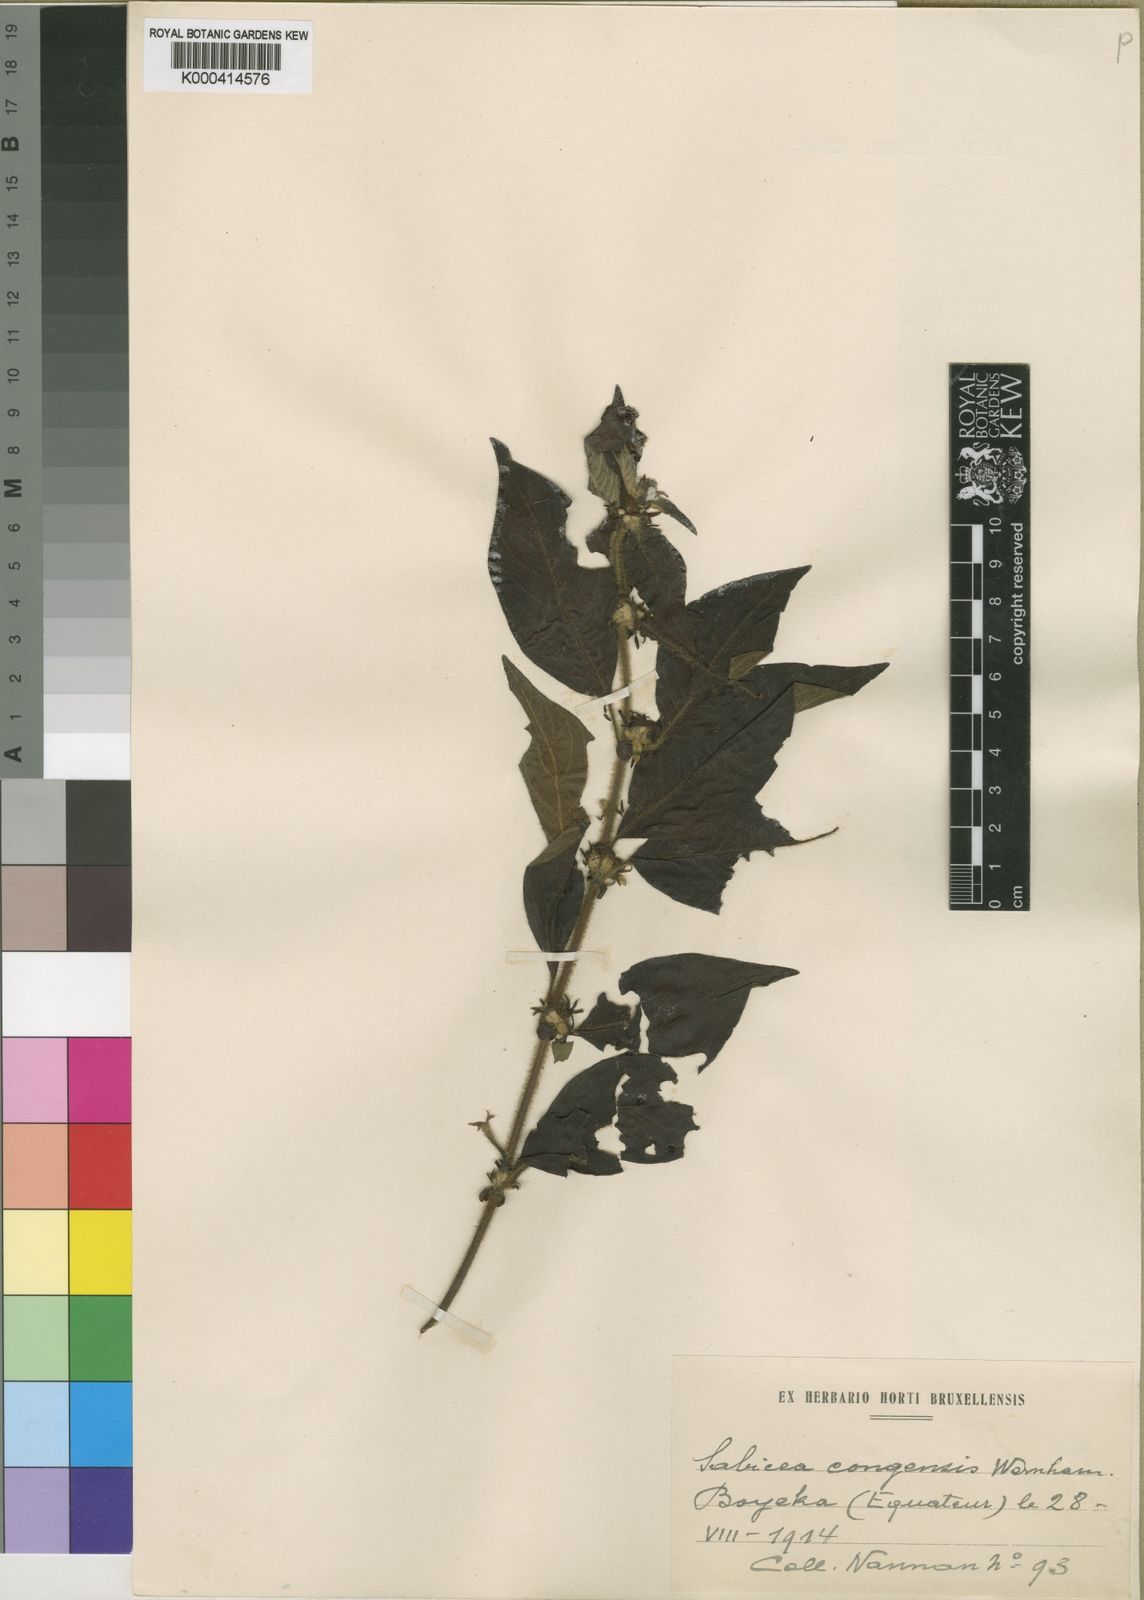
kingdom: Plantae
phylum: Tracheophyta
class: Magnoliopsida
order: Gentianales
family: Rubiaceae
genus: Sabicea
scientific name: Sabicea congensis
